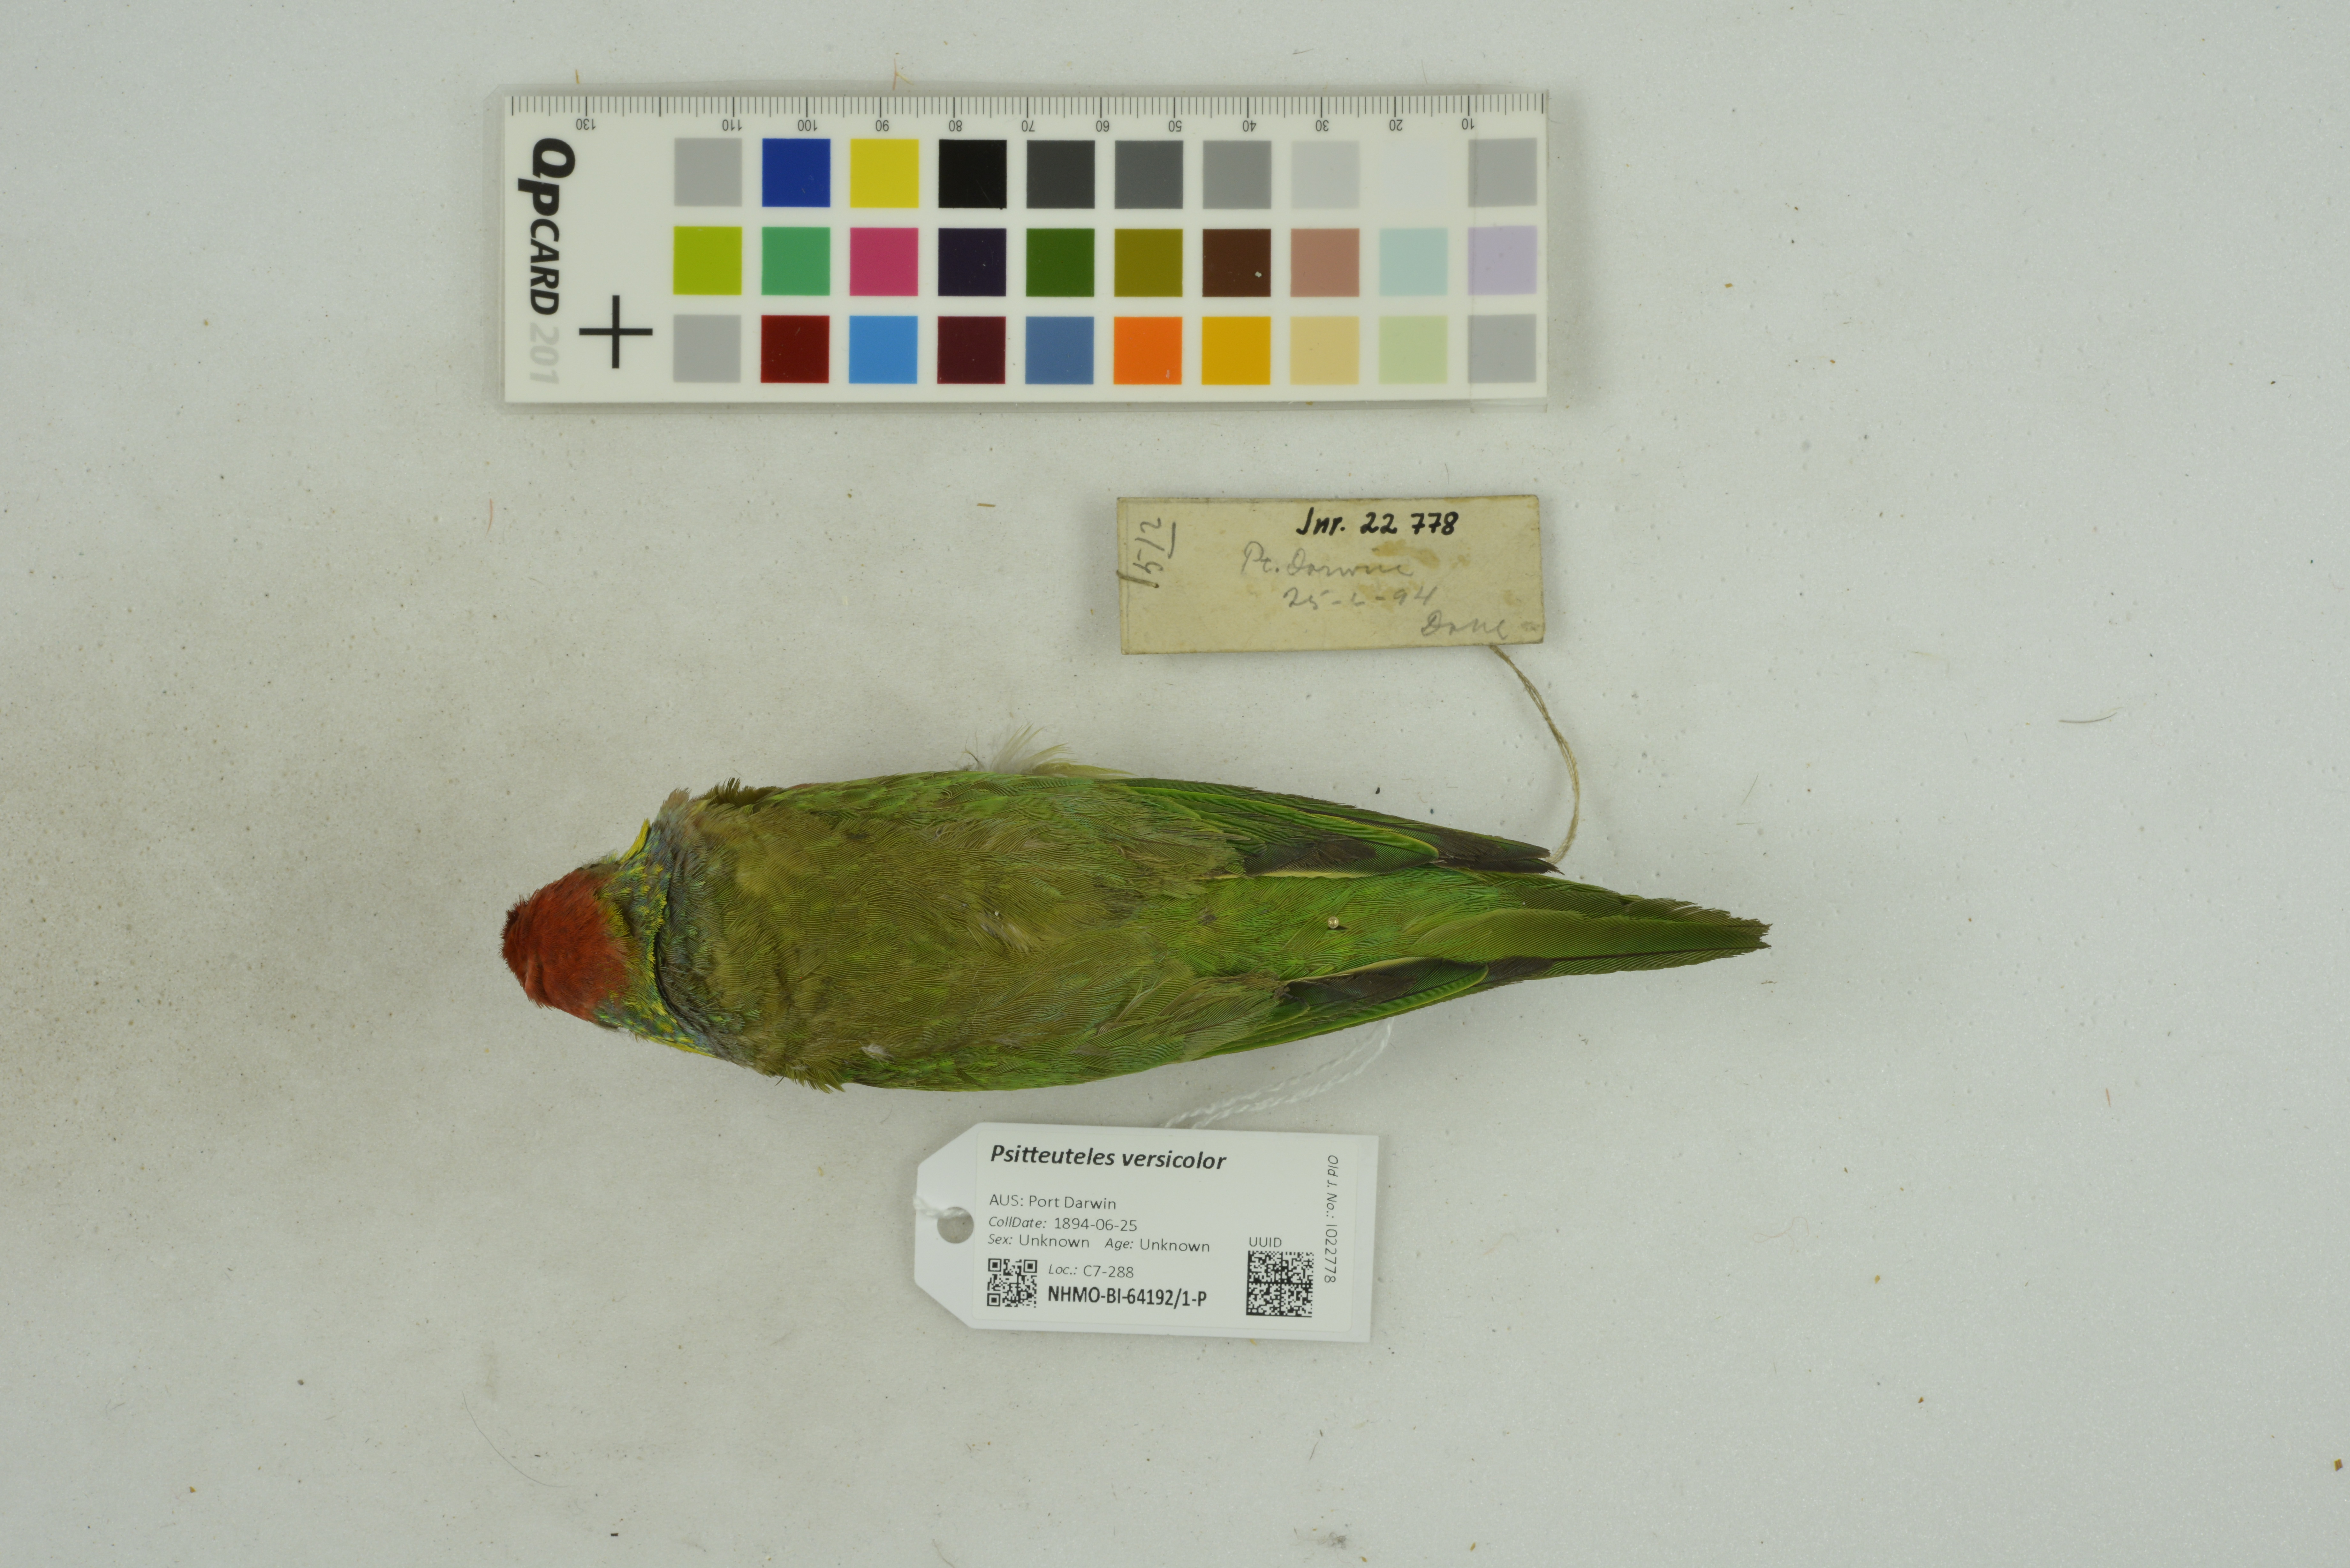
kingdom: Animalia
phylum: Chordata
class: Aves
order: Psittaciformes
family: Psittacidae
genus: Psitteuteles
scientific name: Psitteuteles versicolor
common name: Varied lorikeet
